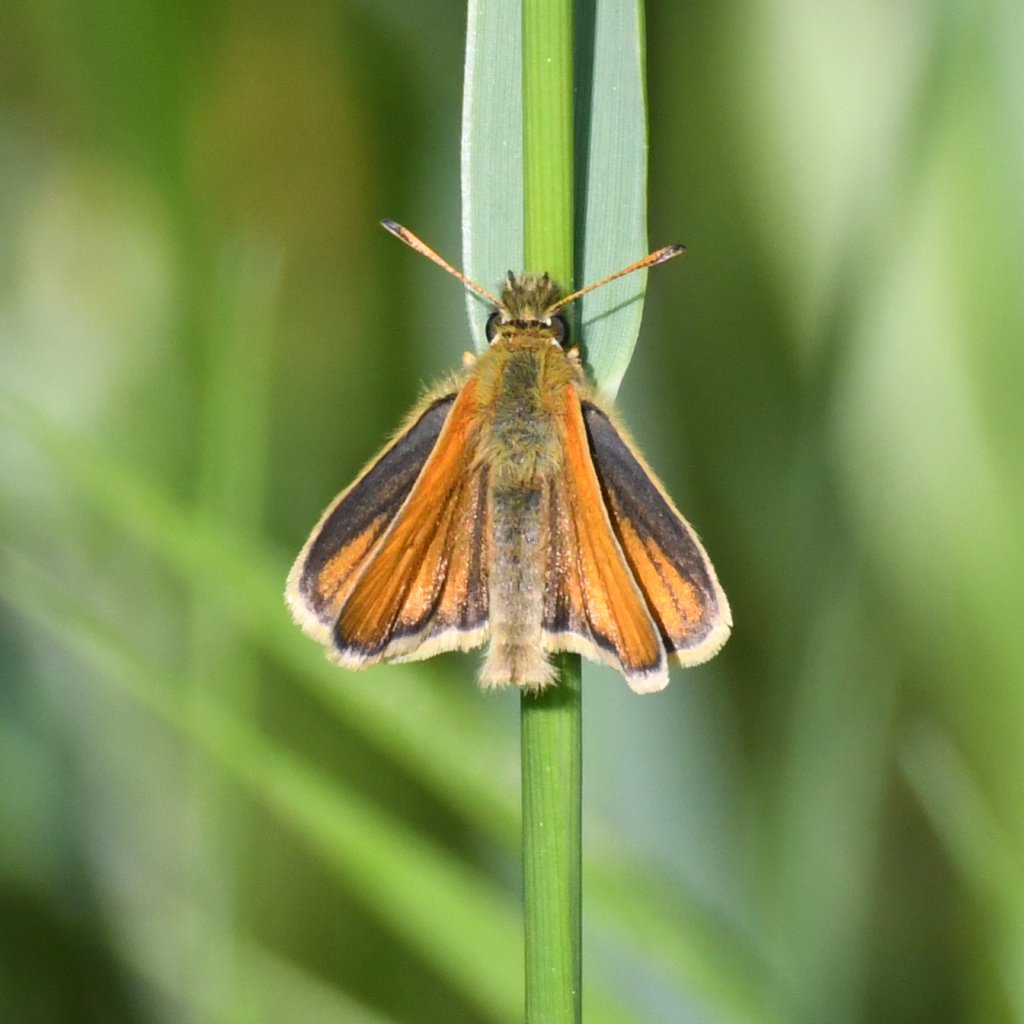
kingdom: Animalia
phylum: Arthropoda
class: Insecta
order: Lepidoptera
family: Hesperiidae
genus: Thymelicus
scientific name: Thymelicus lineola
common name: European Skipper
